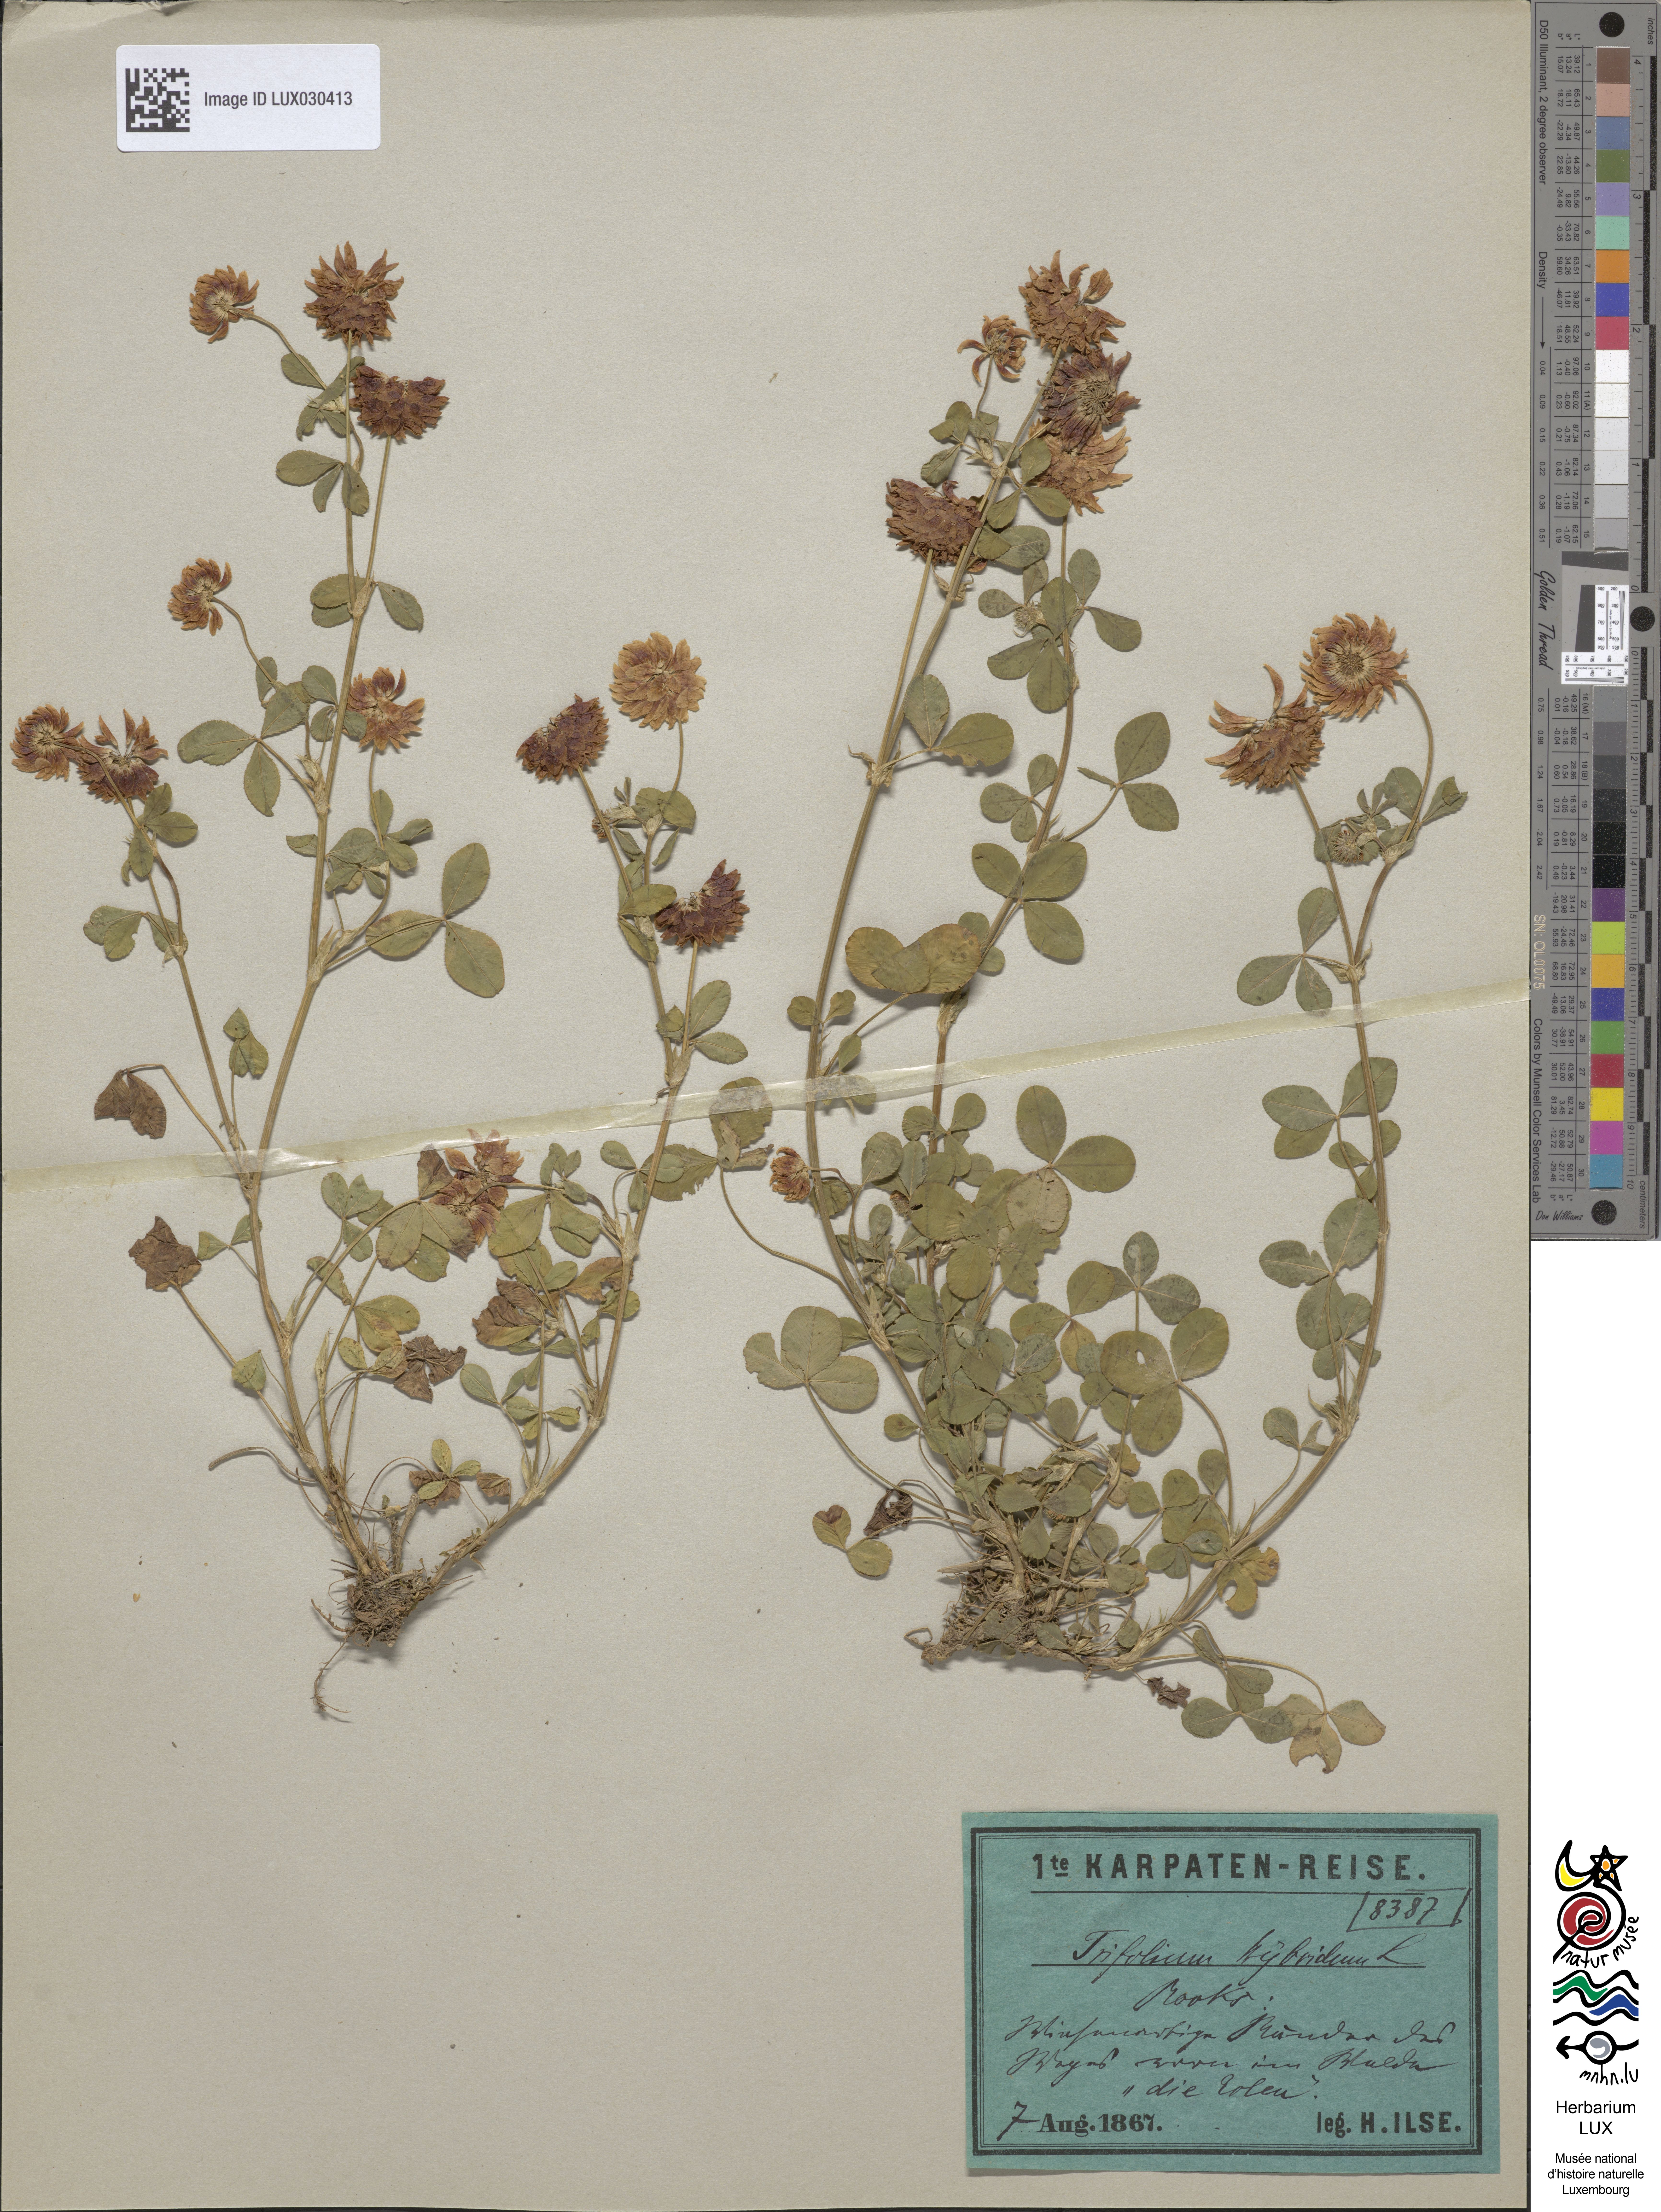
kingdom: Plantae
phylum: Tracheophyta
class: Magnoliopsida
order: Fabales
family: Fabaceae
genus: Trifolium
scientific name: Trifolium hybridum
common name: Alsike clover
